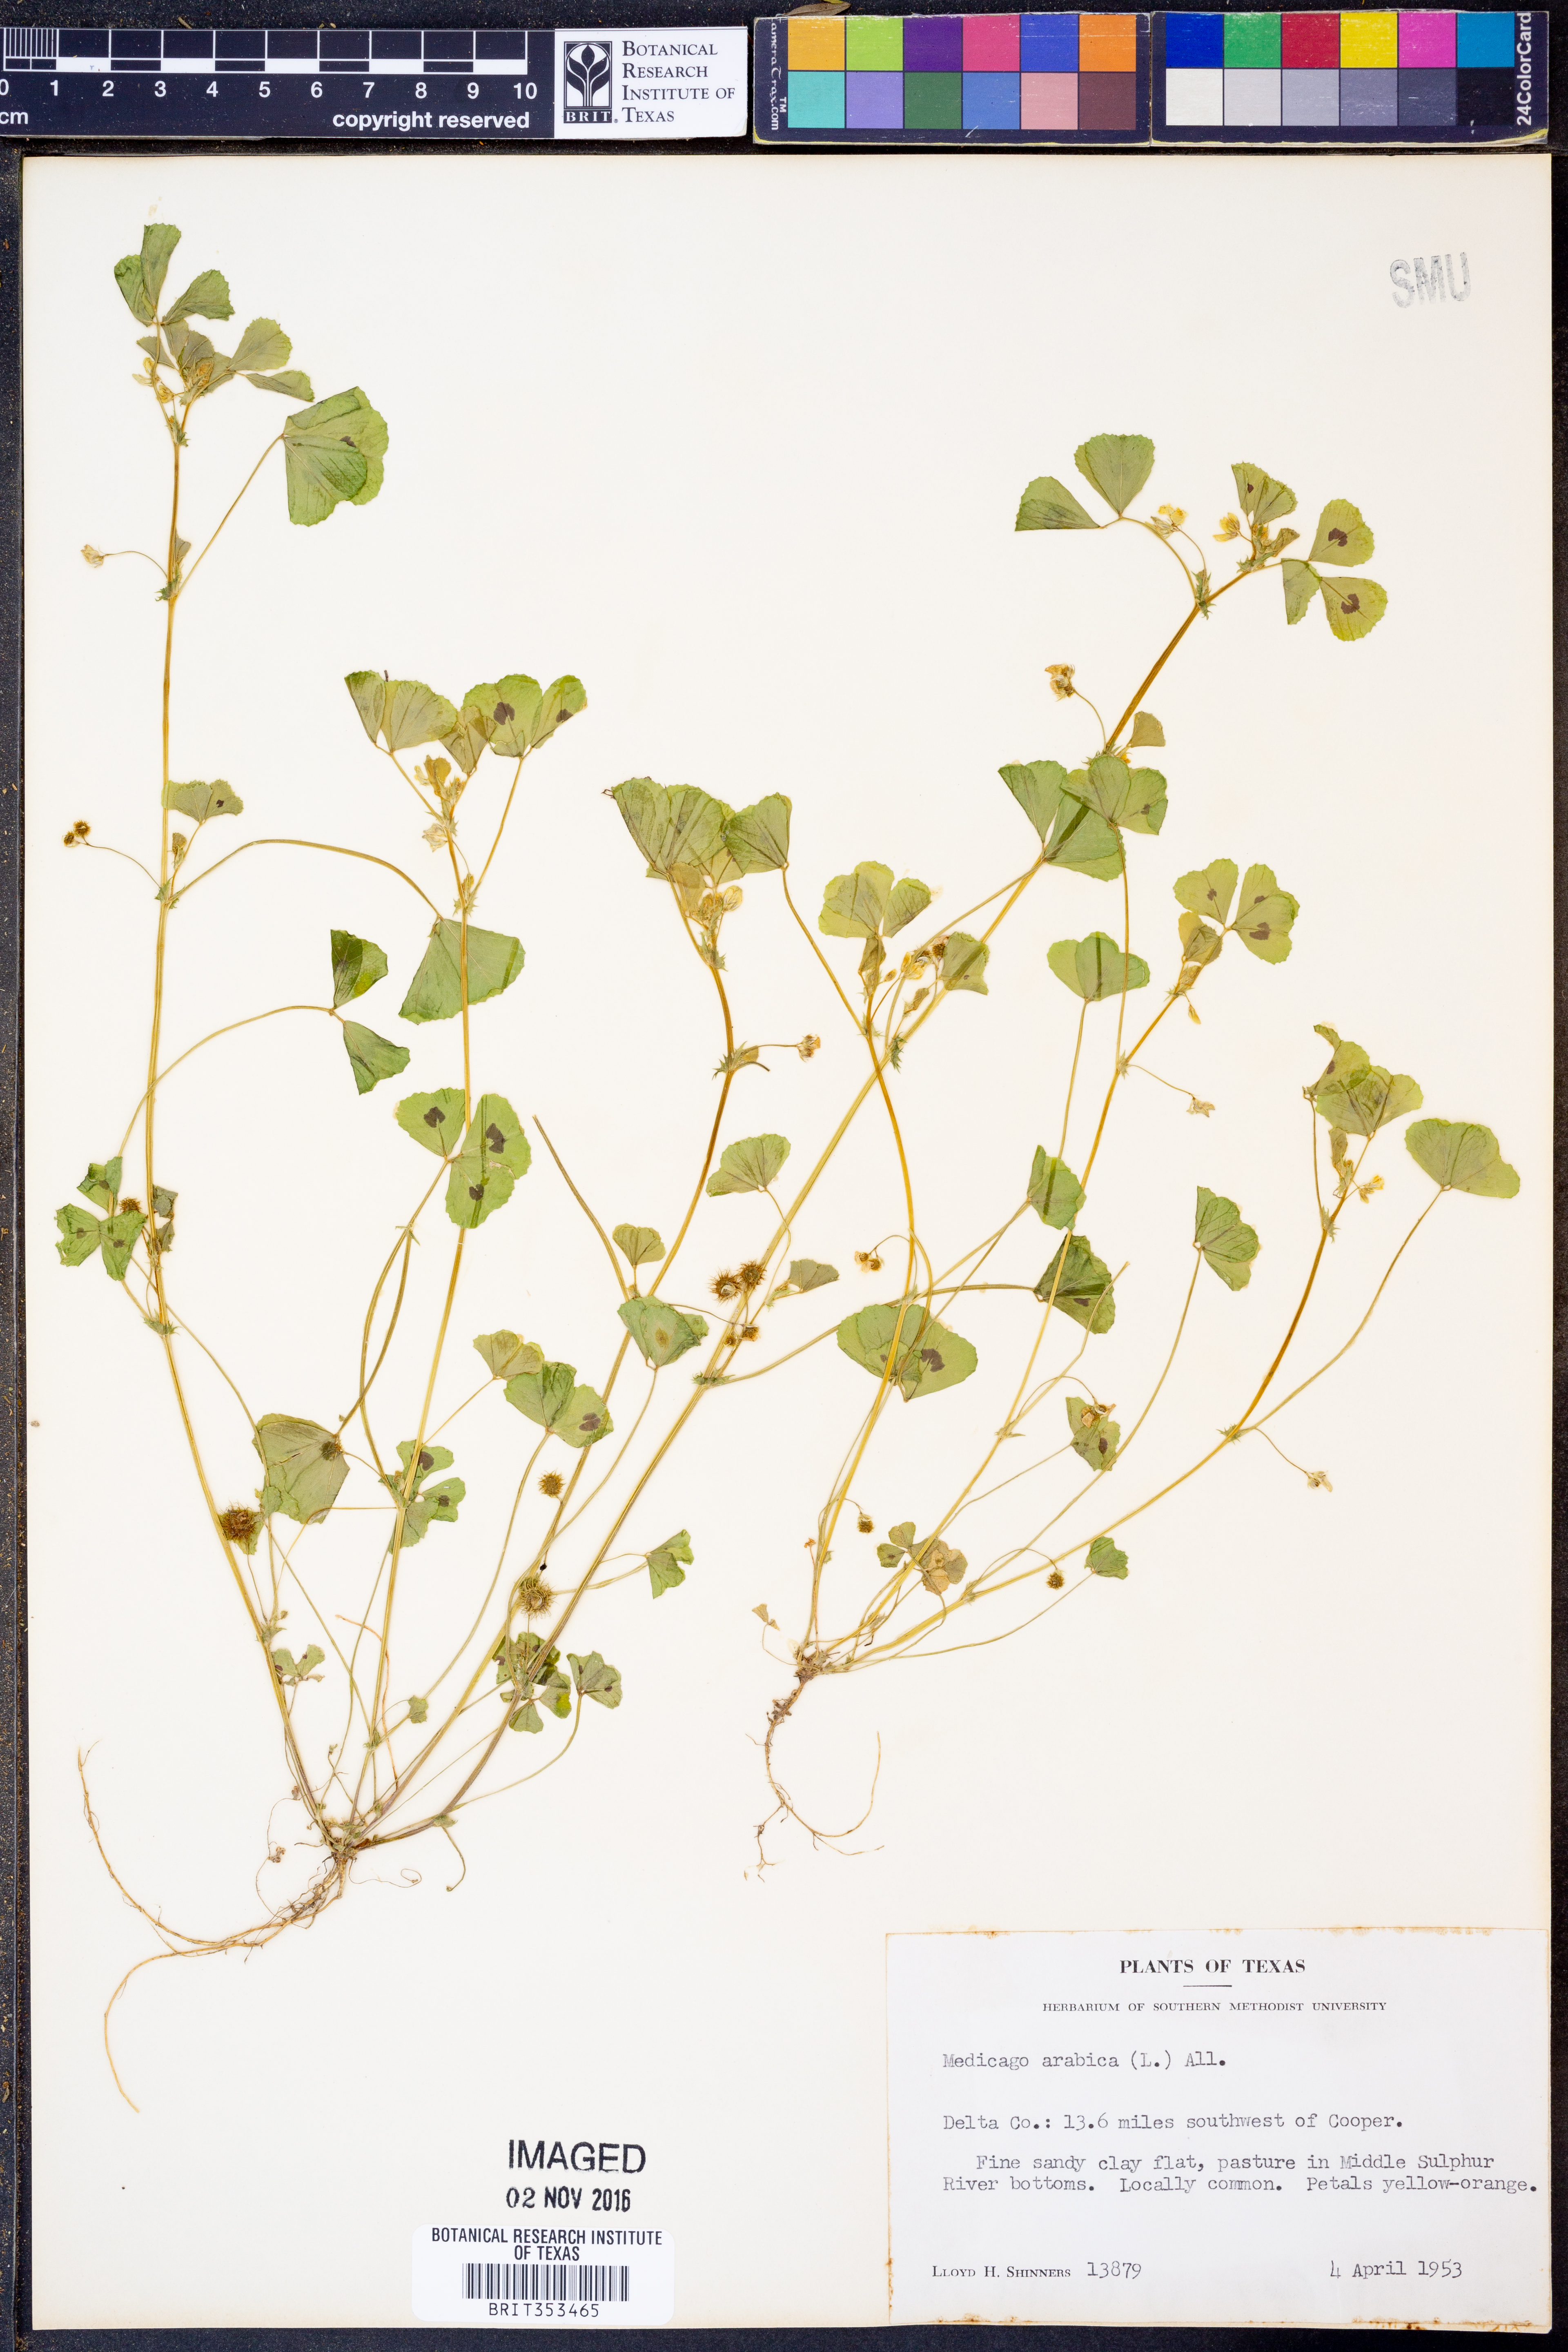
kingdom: Plantae
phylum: Tracheophyta
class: Magnoliopsida
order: Fabales
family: Fabaceae
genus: Medicago
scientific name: Medicago arabica
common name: Spotted medick
